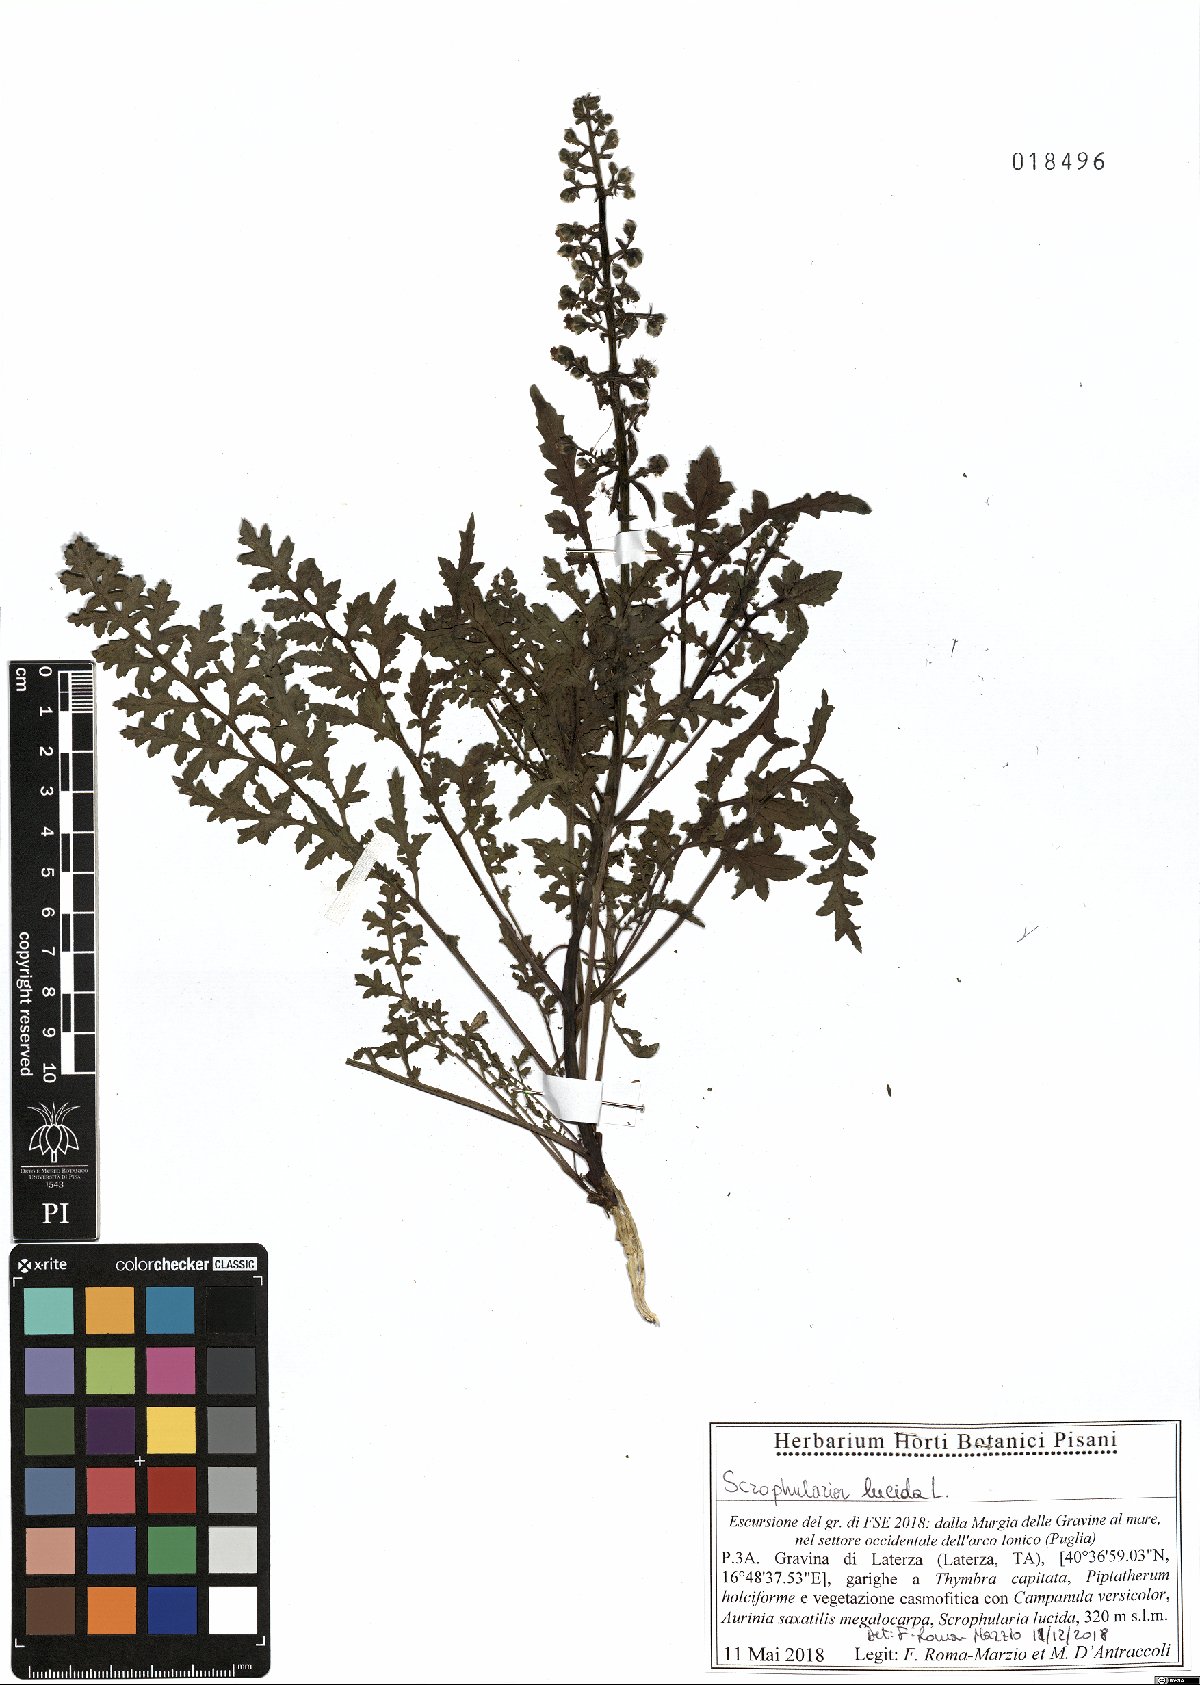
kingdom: Plantae
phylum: Tracheophyta
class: Magnoliopsida
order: Lamiales
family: Scrophulariaceae
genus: Scrophularia
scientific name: Scrophularia lucida
